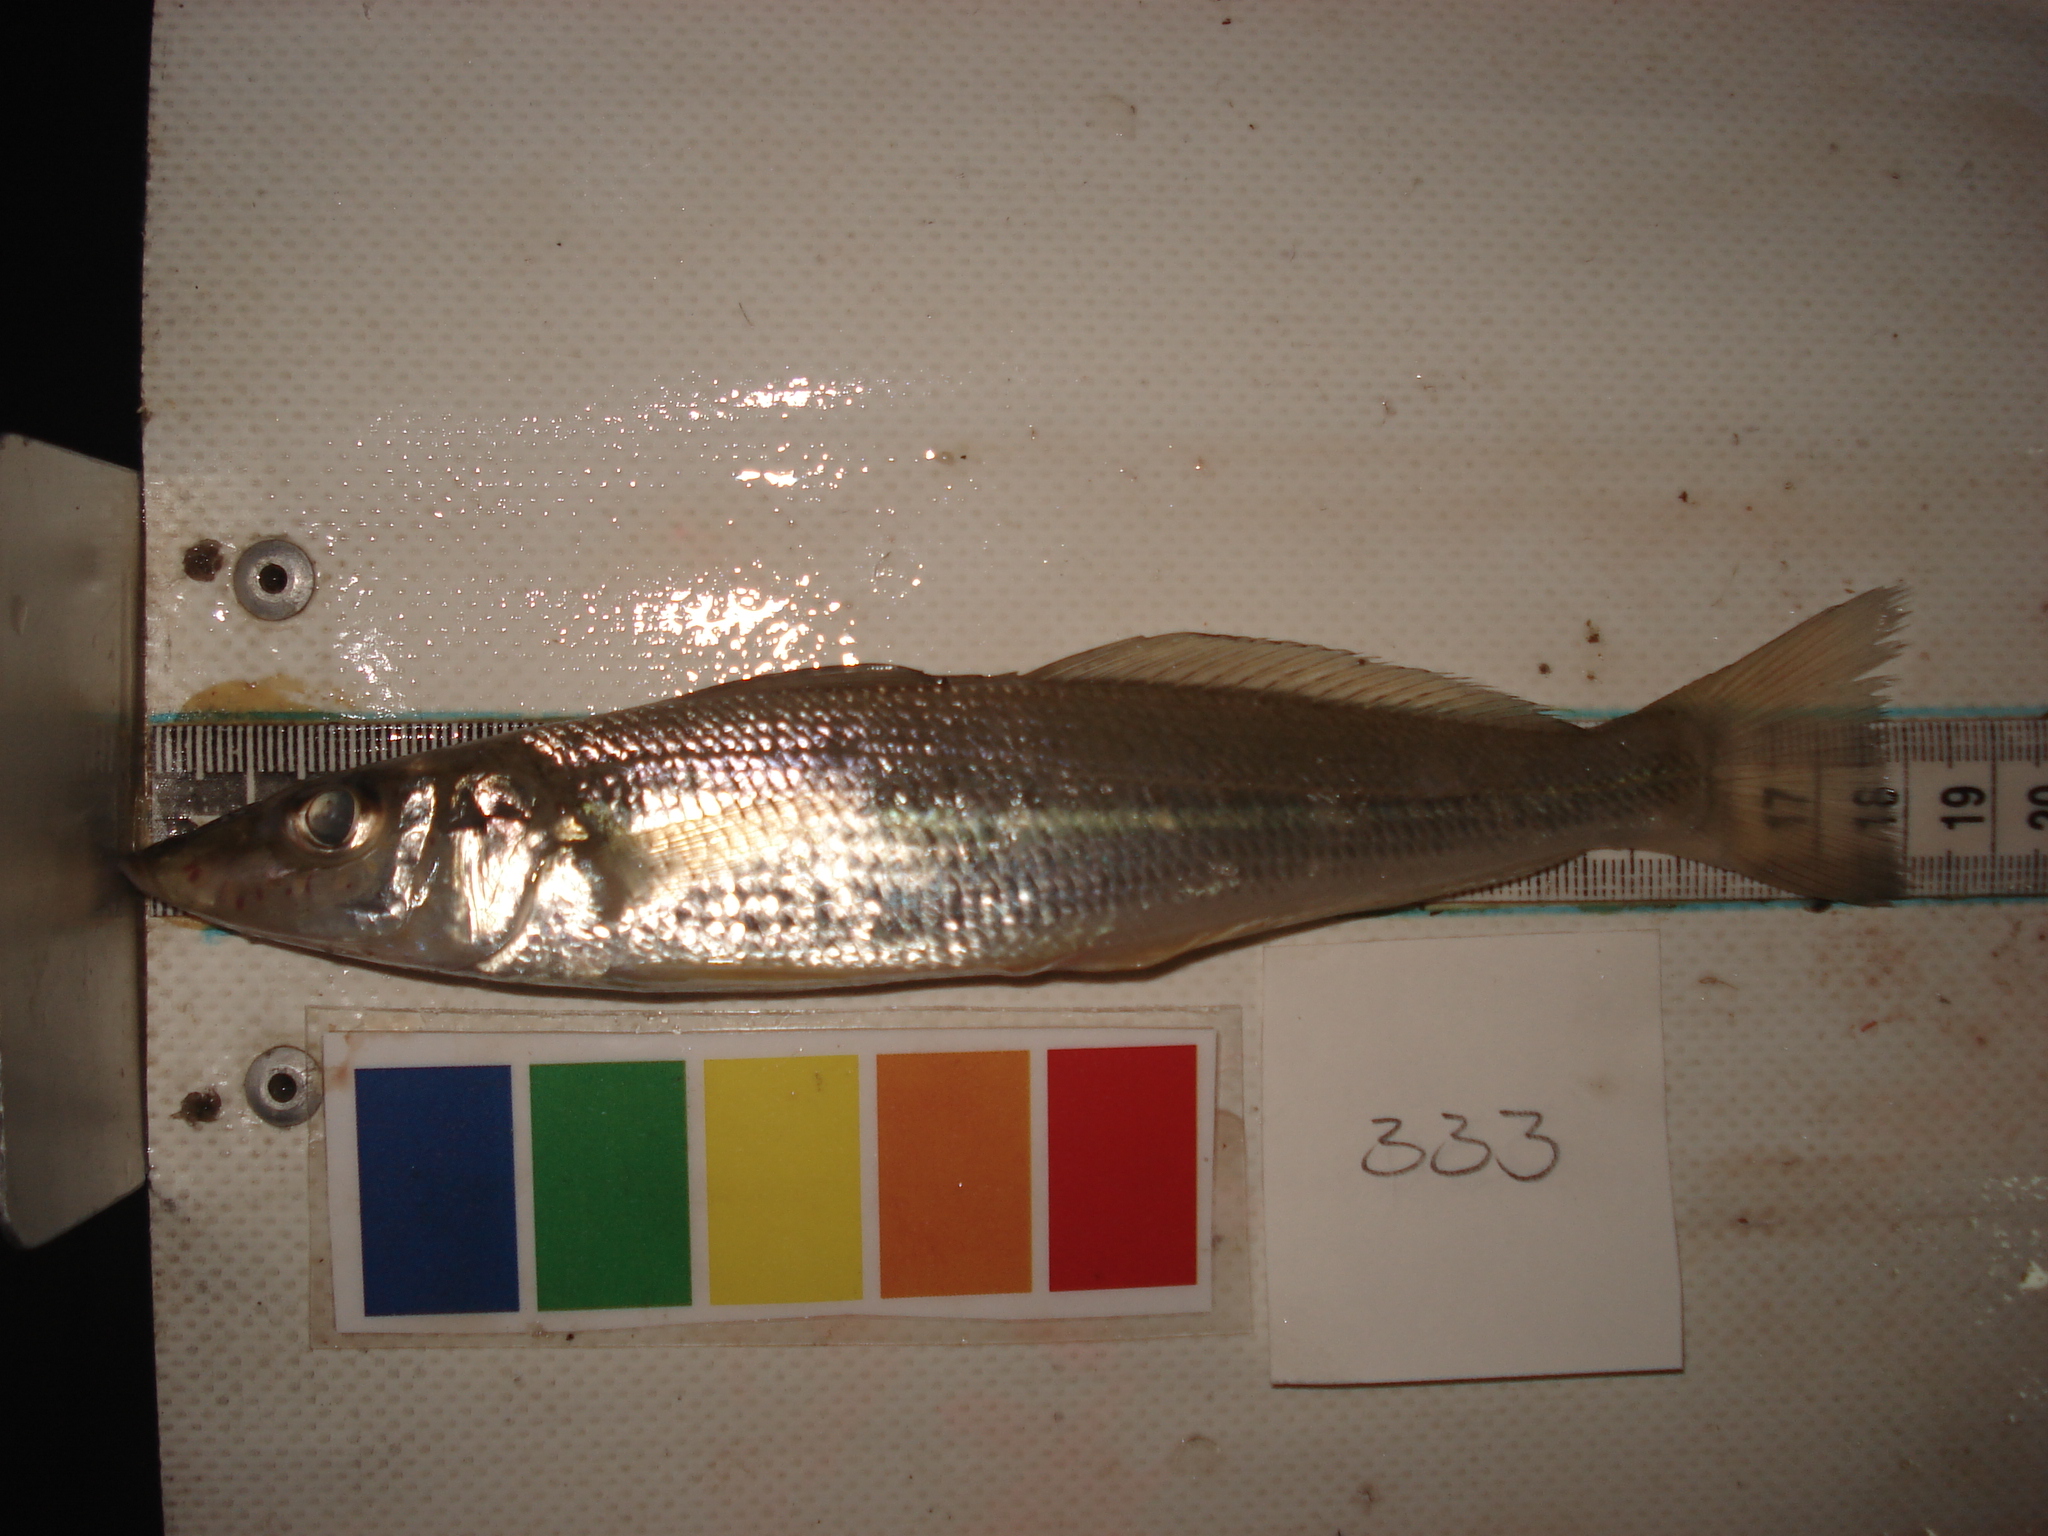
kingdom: Animalia
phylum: Chordata
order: Perciformes
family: Sillaginidae
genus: Sillago
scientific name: Sillago sihama
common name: Silver sillago
